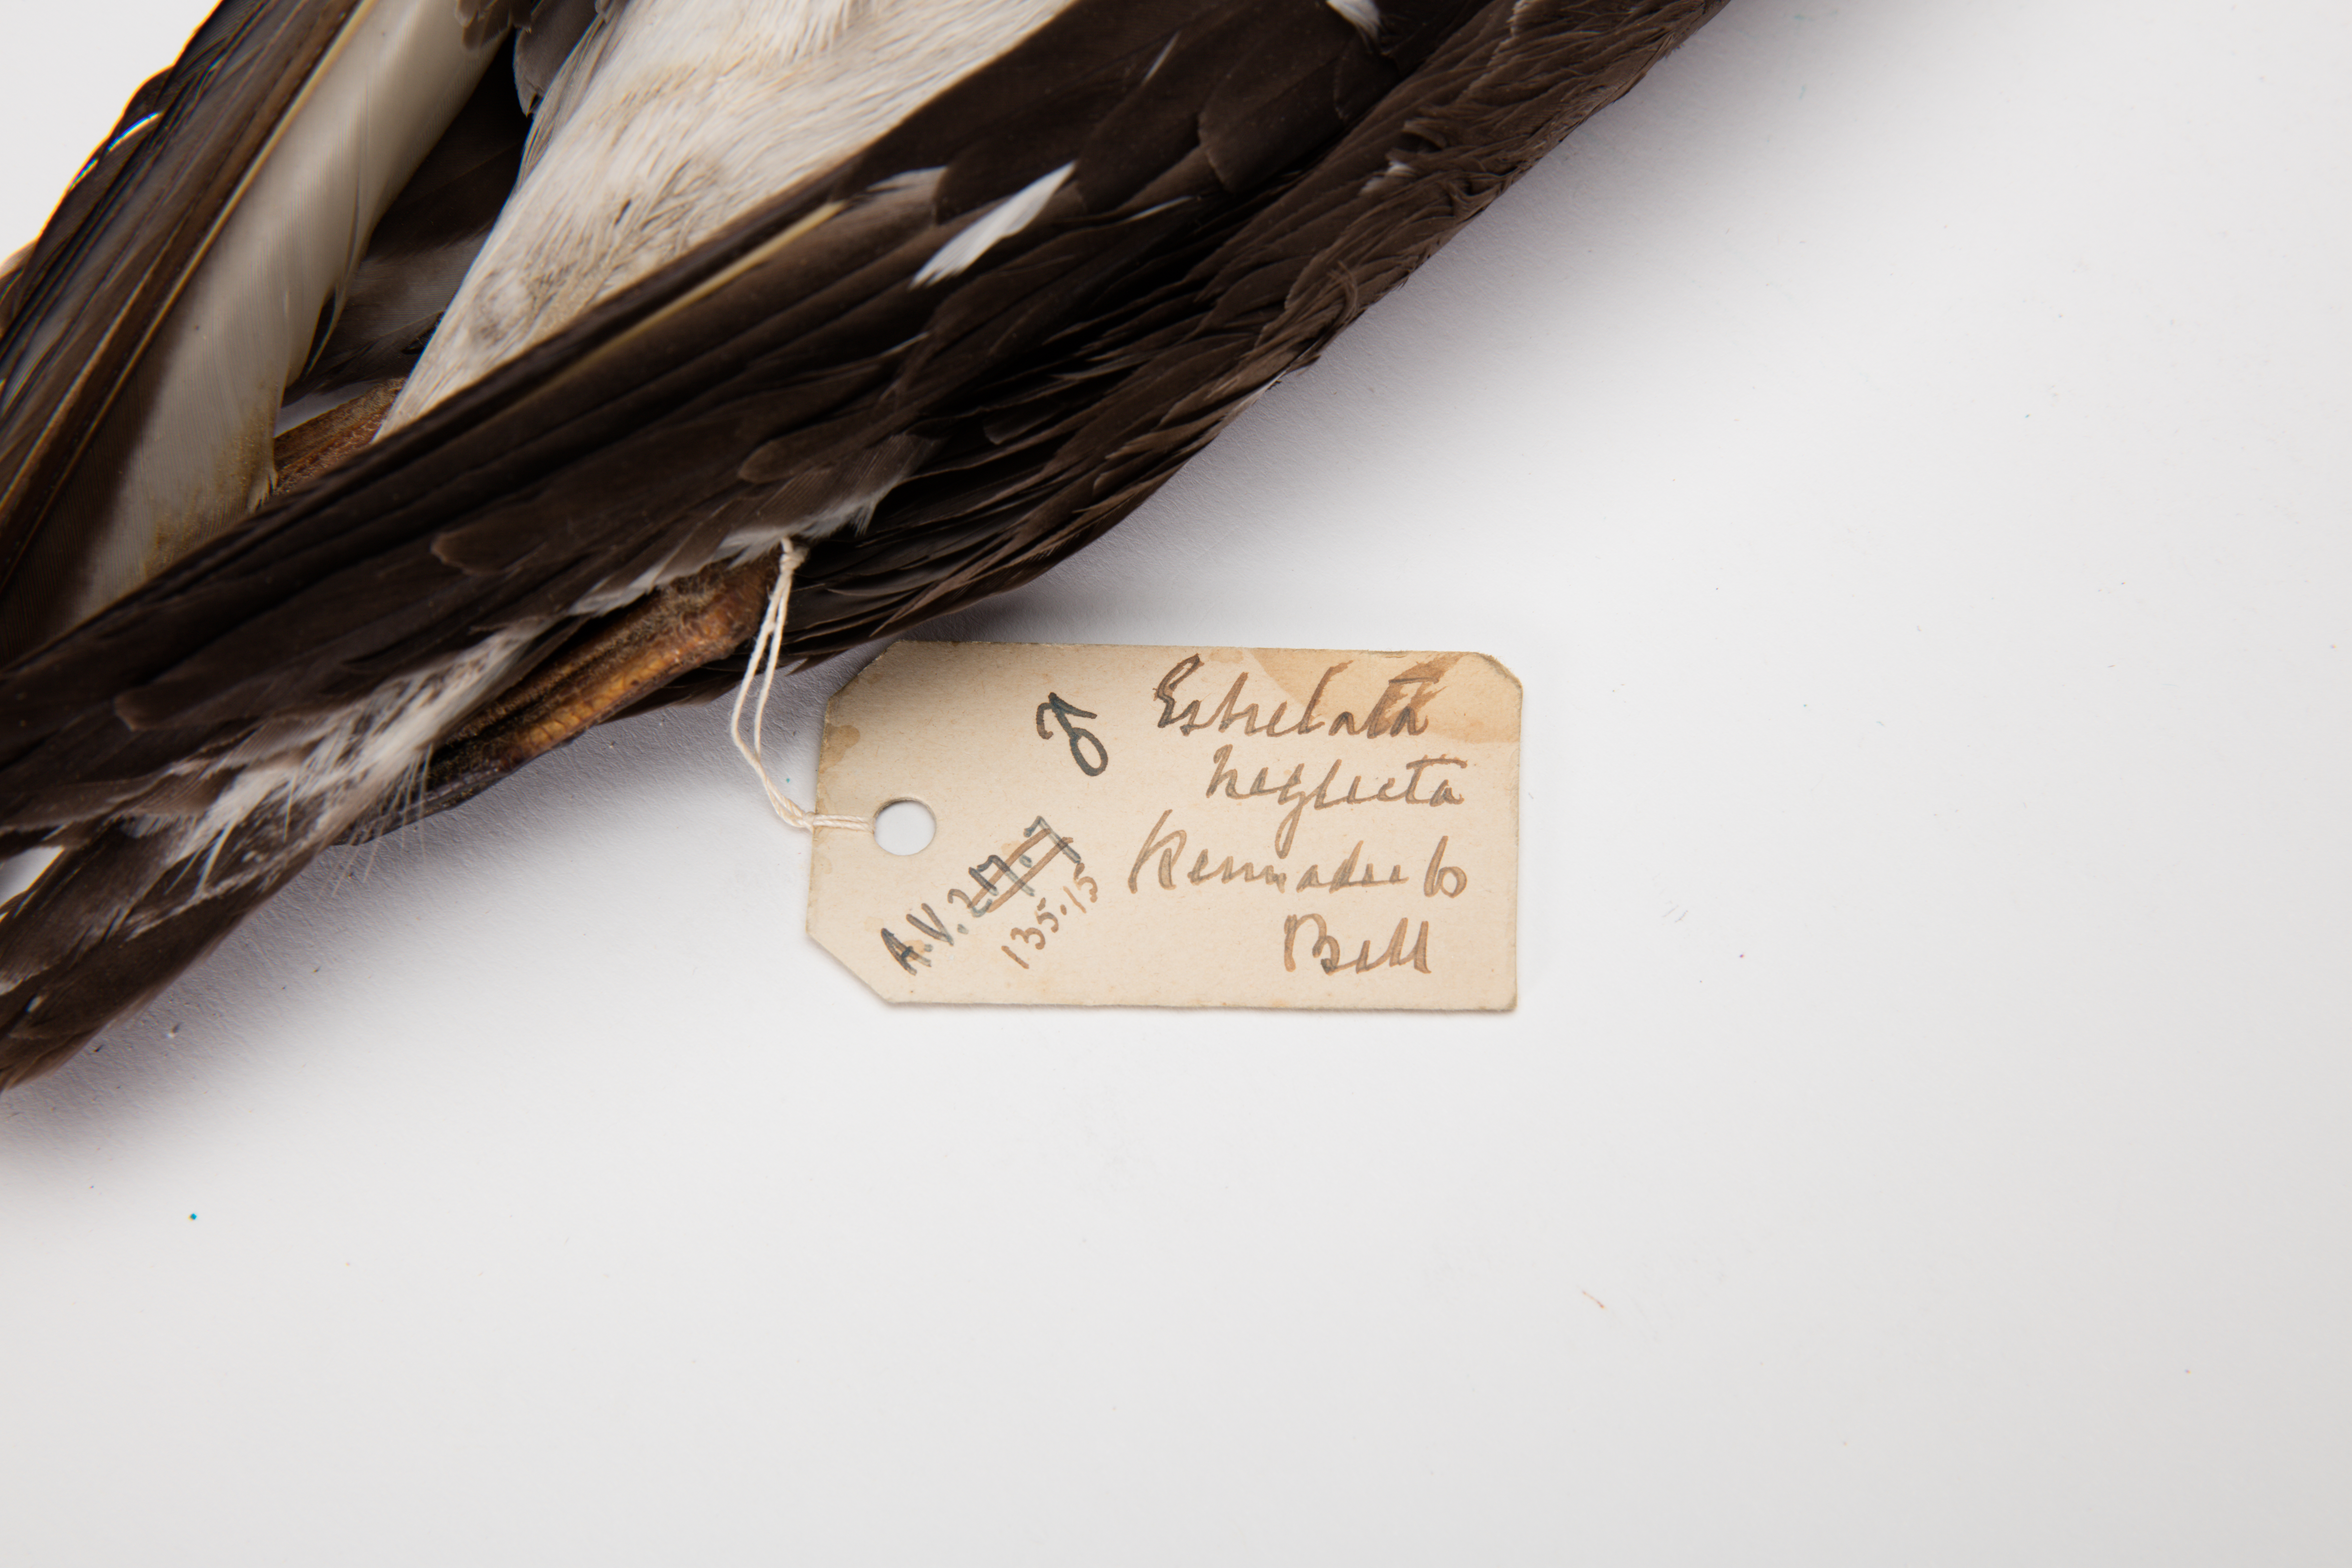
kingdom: Animalia
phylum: Chordata
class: Aves
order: Procellariiformes
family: Procellariidae
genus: Pterodroma
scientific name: Pterodroma neglecta
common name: Kermadec petrel
